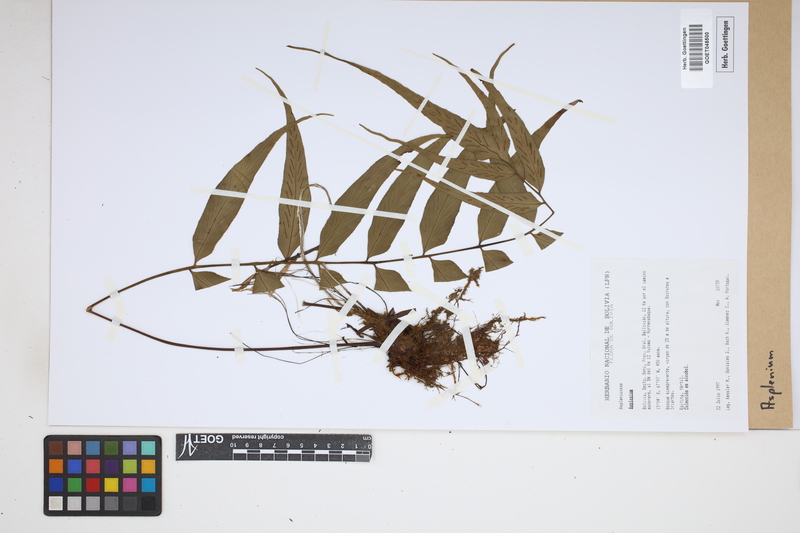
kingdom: Plantae
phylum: Tracheophyta
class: Polypodiopsida
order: Polypodiales
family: Aspleniaceae
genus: Asplenium
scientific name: Asplenium
